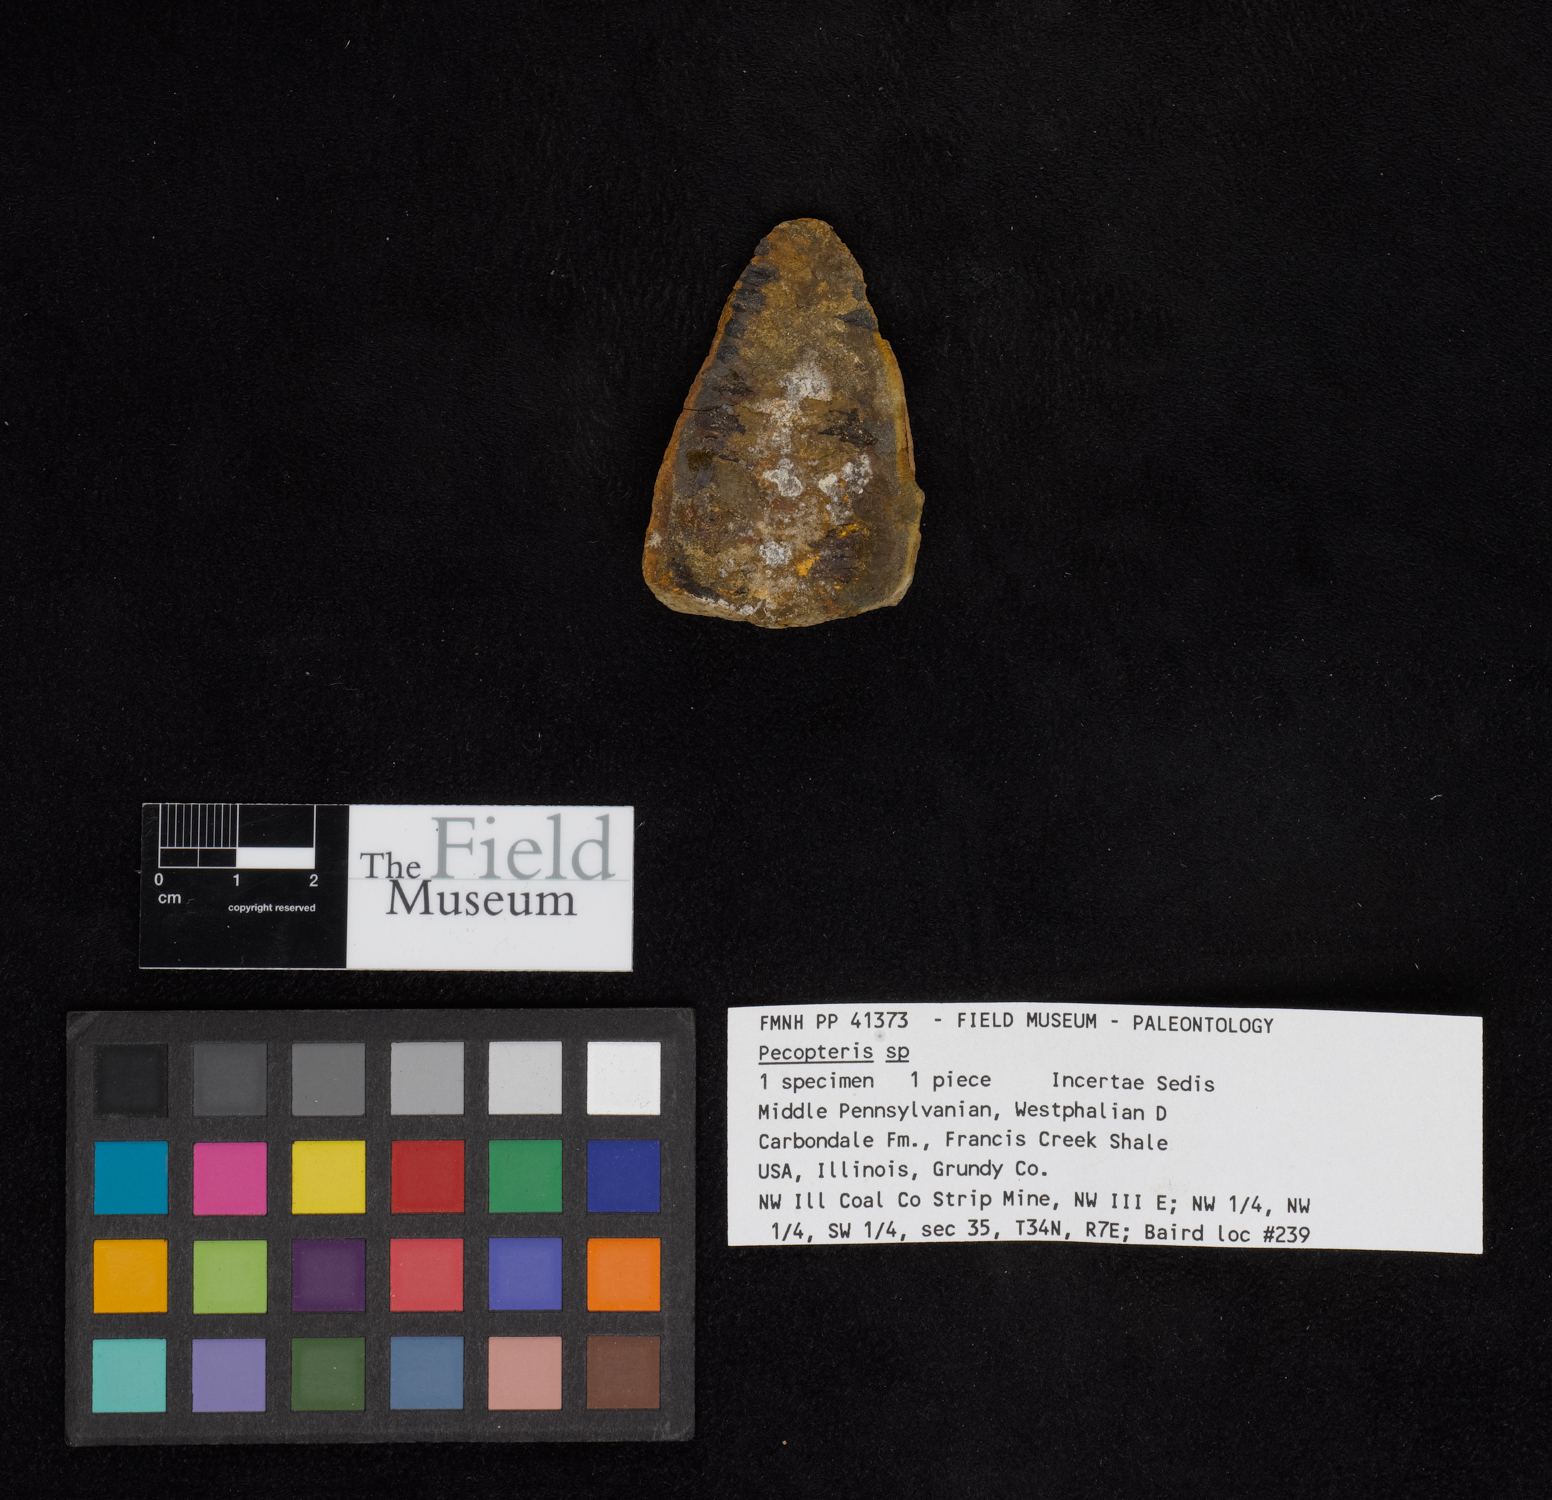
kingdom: Plantae
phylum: Tracheophyta
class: Polypodiopsida
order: Marattiales
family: Asterothecaceae
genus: Pecopteris
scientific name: Pecopteris
